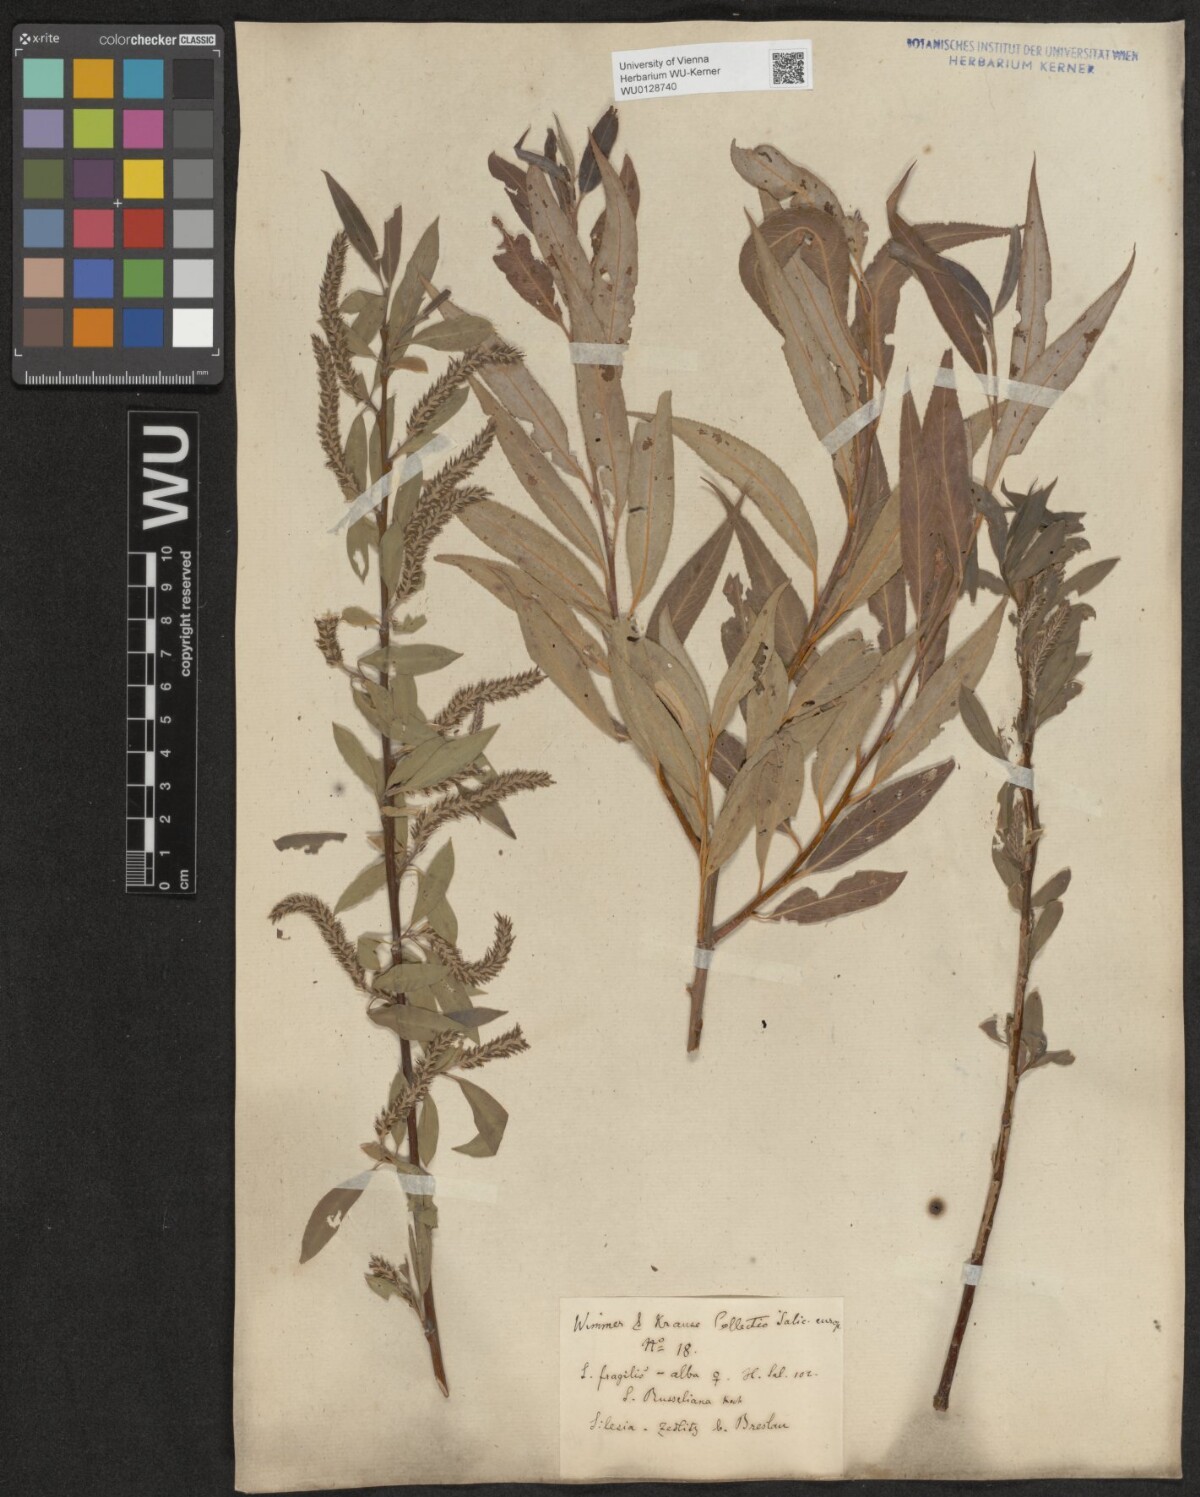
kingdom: Plantae
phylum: Tracheophyta
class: Magnoliopsida
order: Malpighiales
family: Salicaceae
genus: Salix
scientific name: Salix
